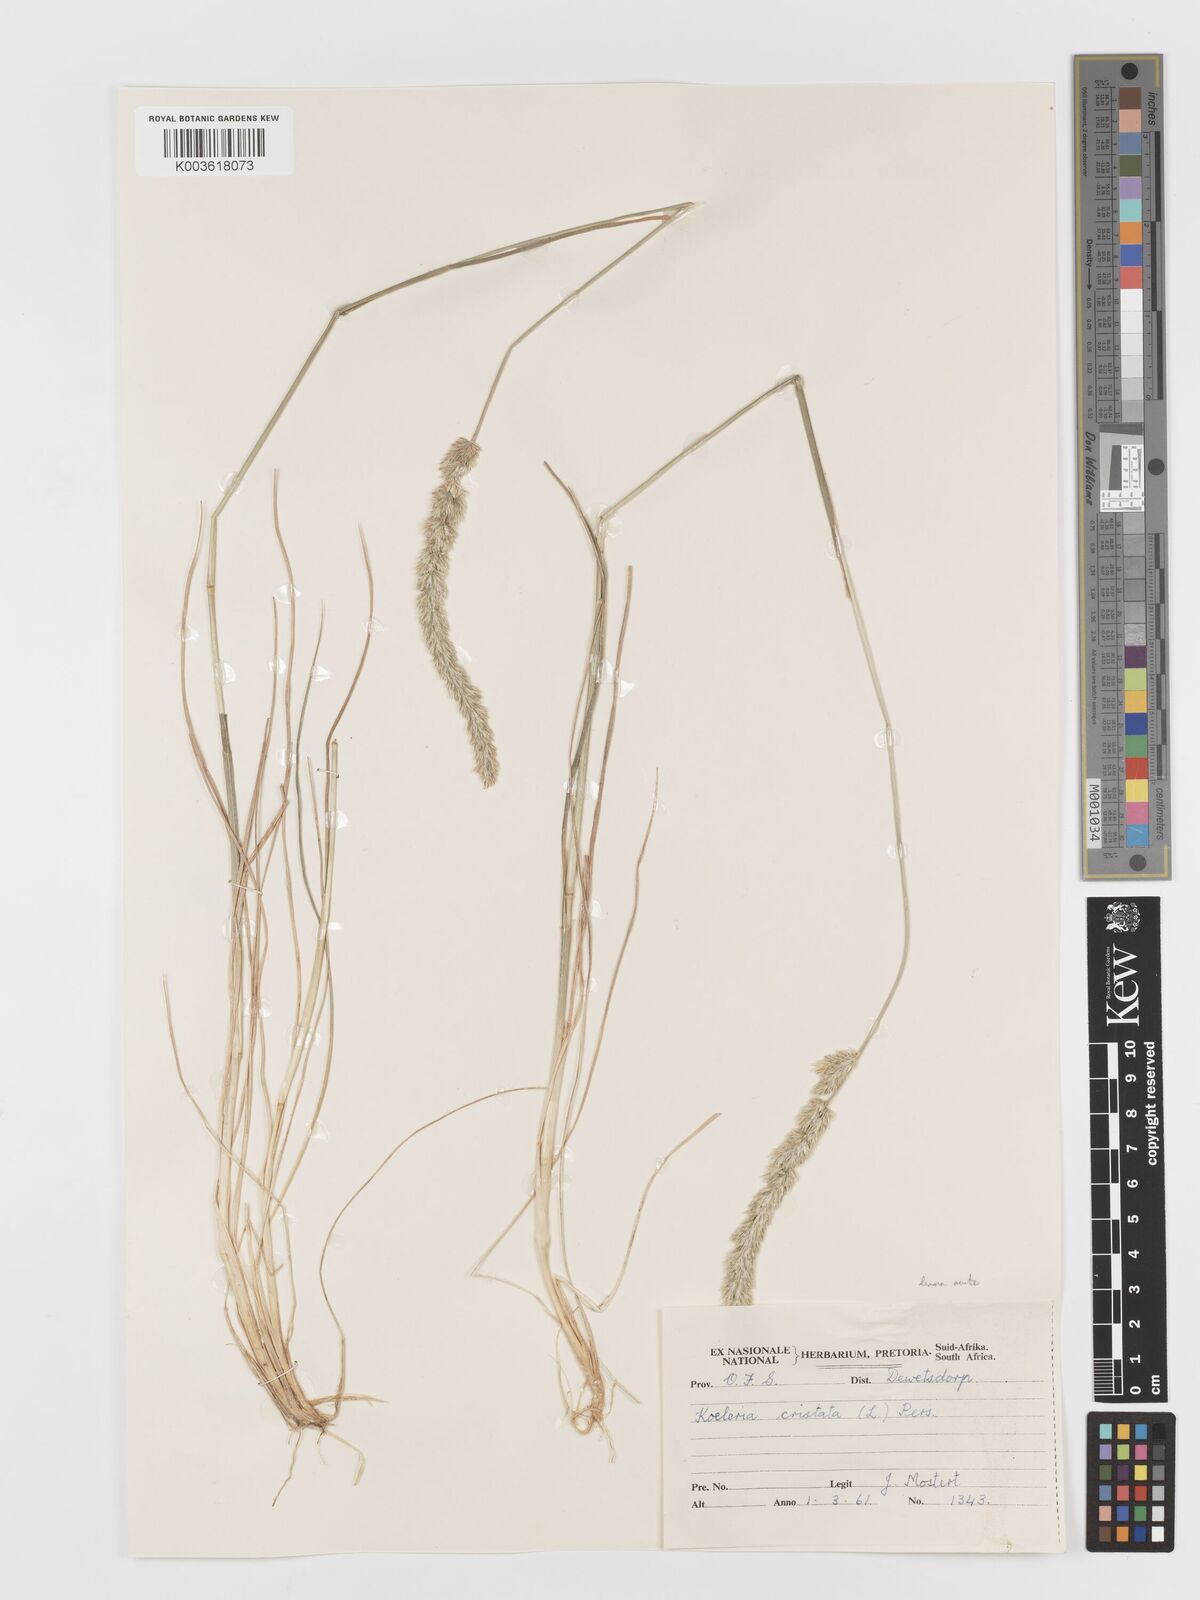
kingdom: Plantae
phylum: Tracheophyta
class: Liliopsida
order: Poales
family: Poaceae
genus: Koeleria
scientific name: Koeleria capensis
